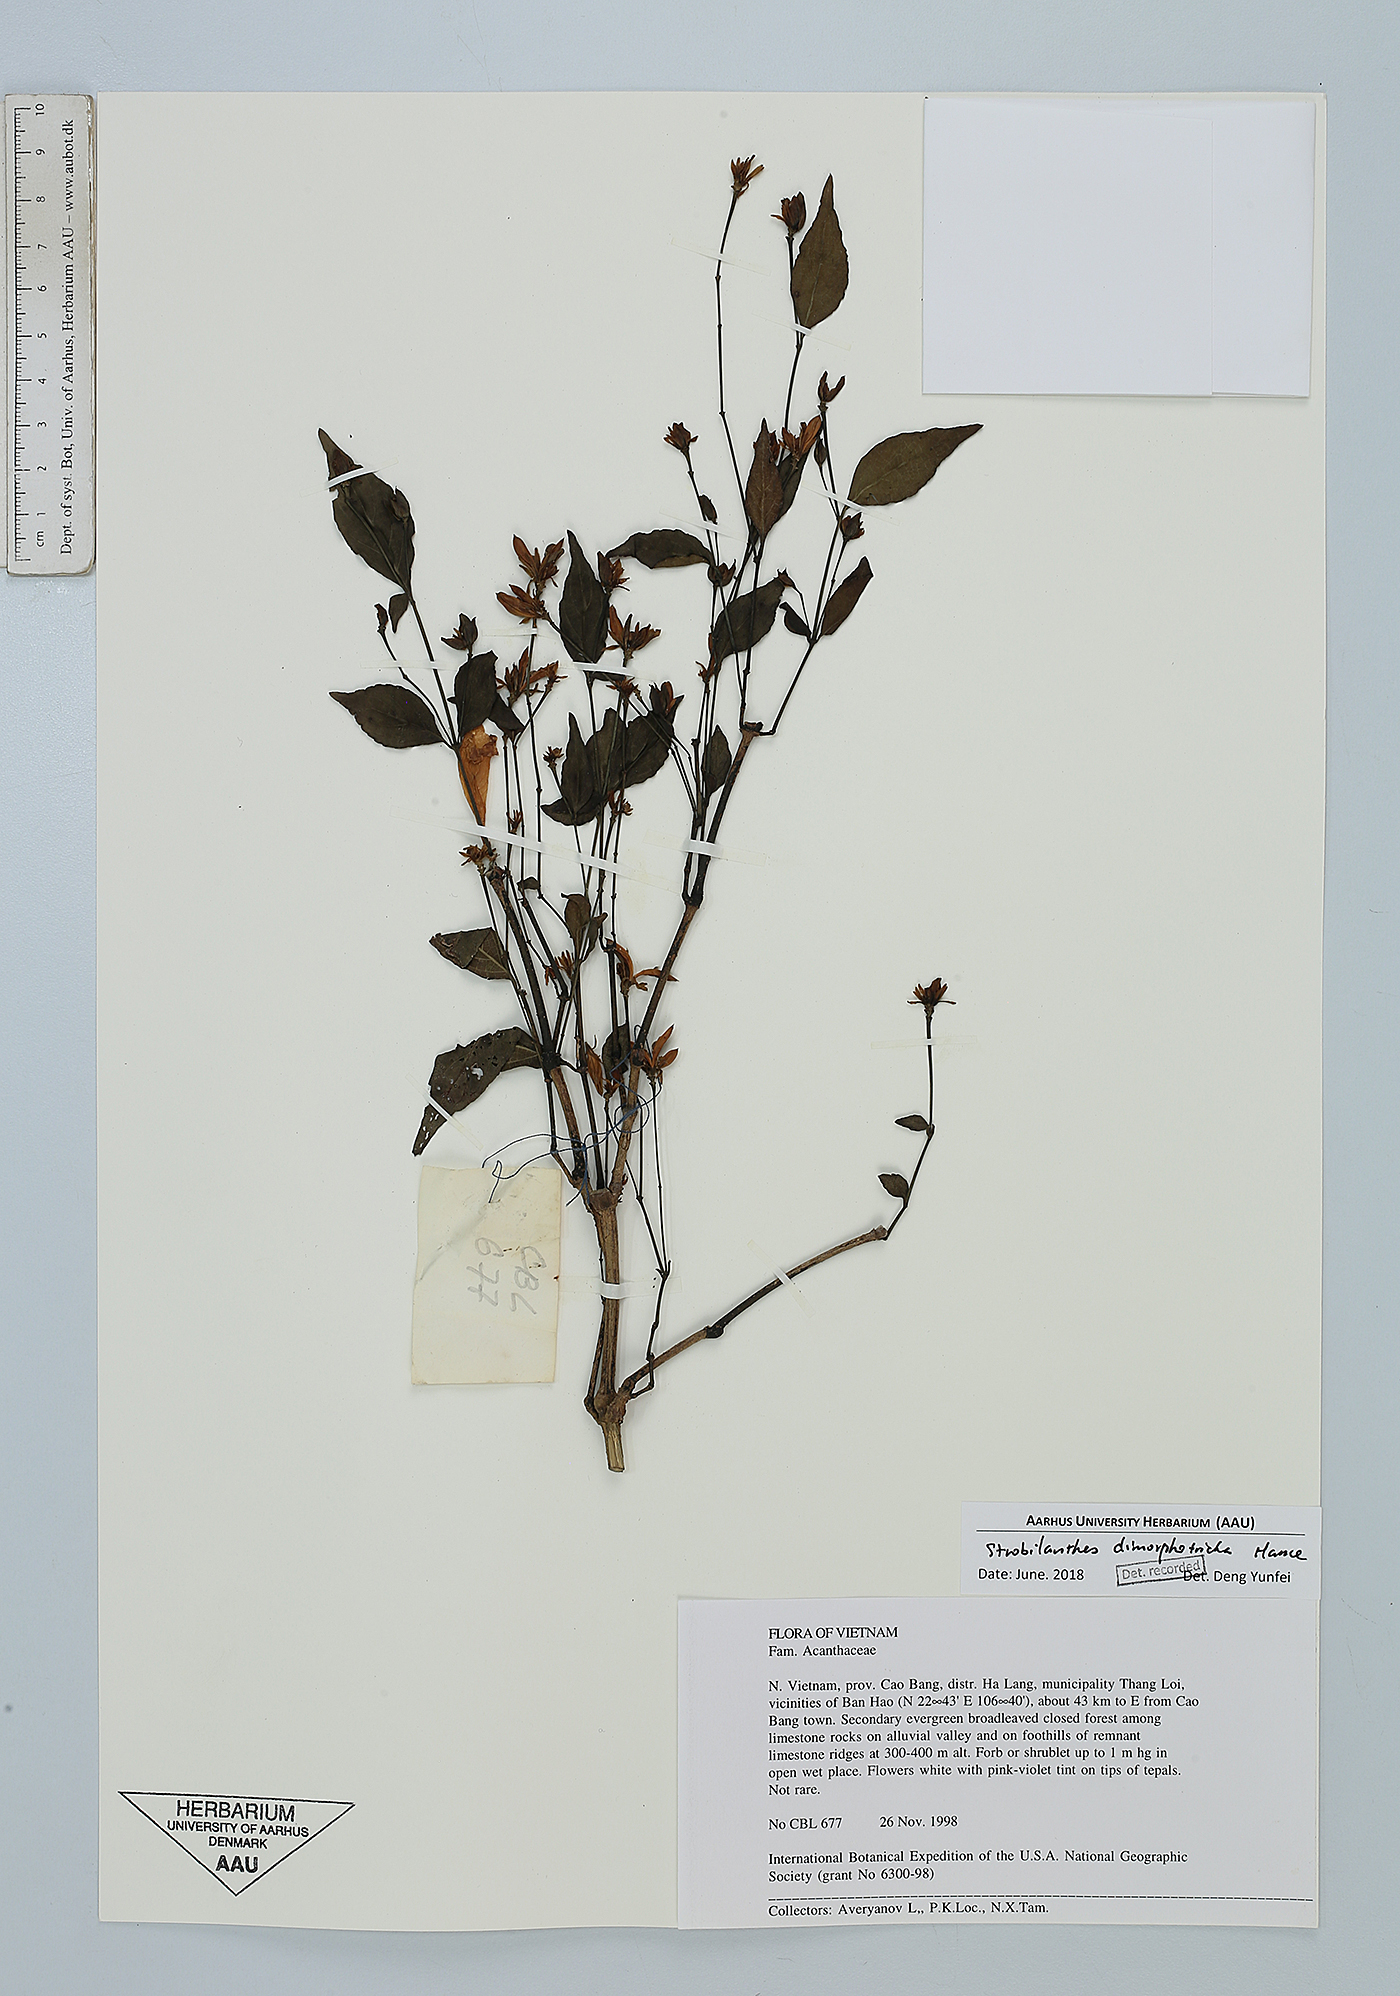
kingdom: Plantae
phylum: Tracheophyta
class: Magnoliopsida
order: Lamiales
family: Acanthaceae
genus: Strobilanthes
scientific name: Strobilanthes dimorphotricha
